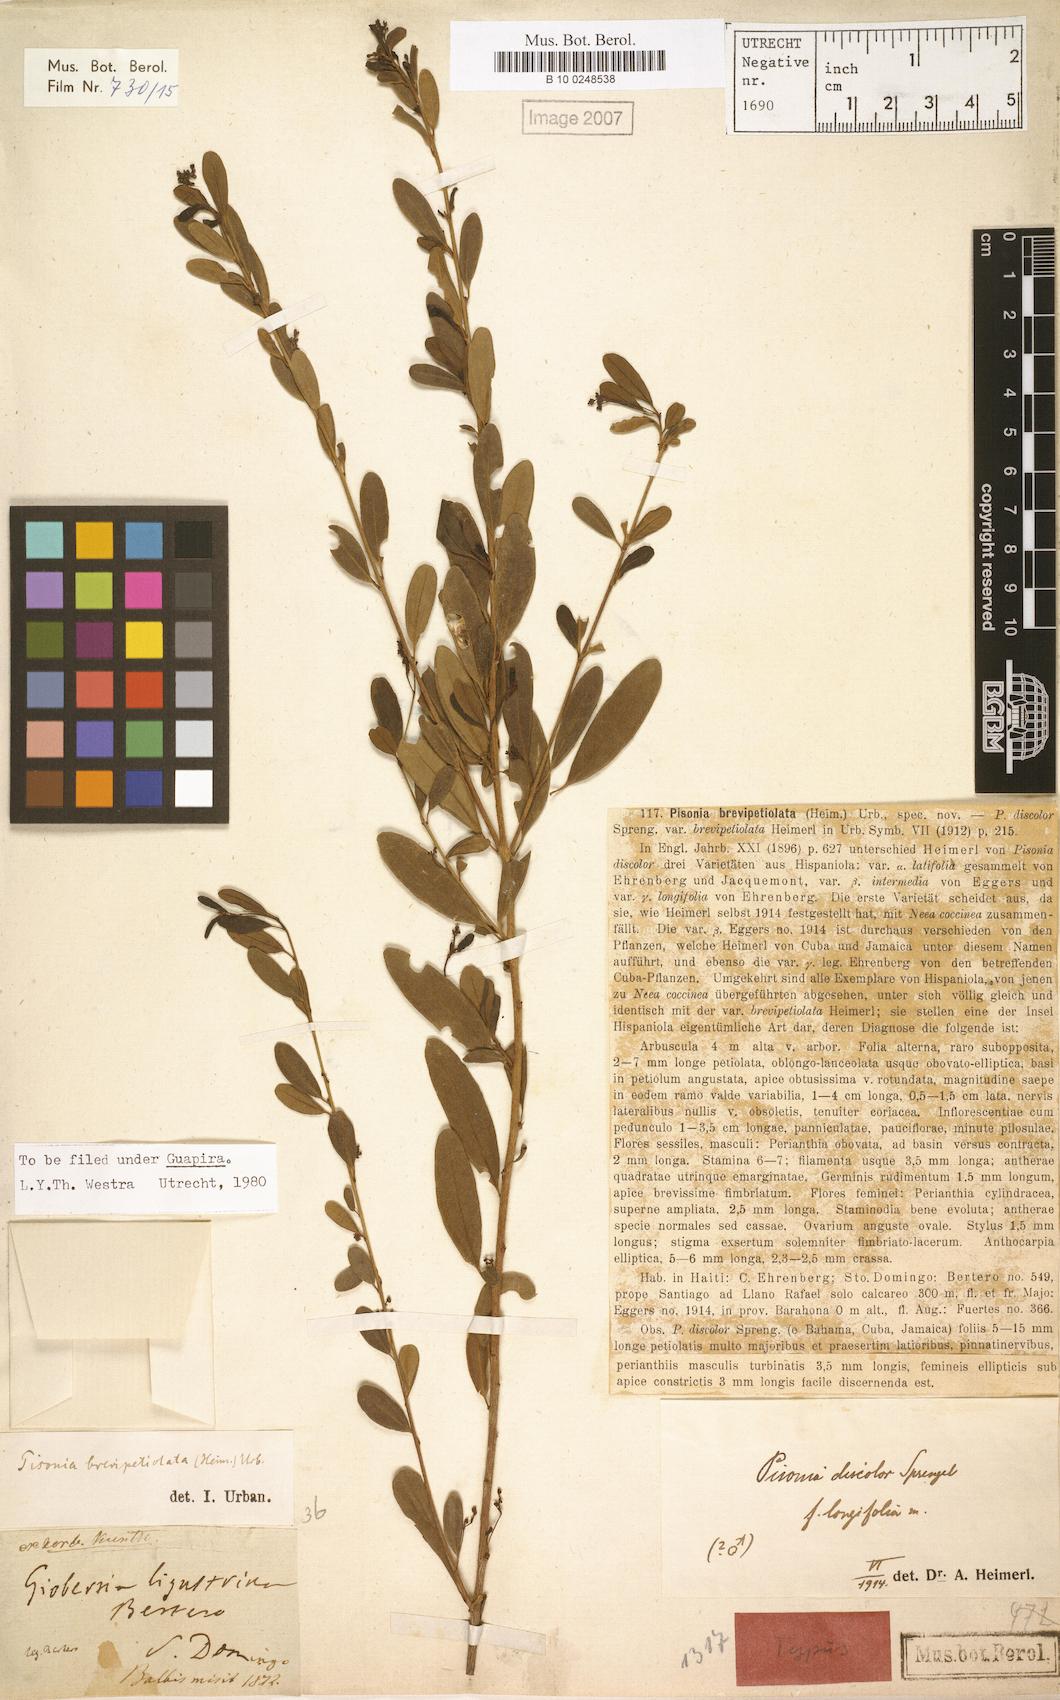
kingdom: Plantae
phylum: Tracheophyta
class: Magnoliopsida
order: Caryophyllales
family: Nyctaginaceae
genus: Guapira
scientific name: Guapira brevipetiolata
